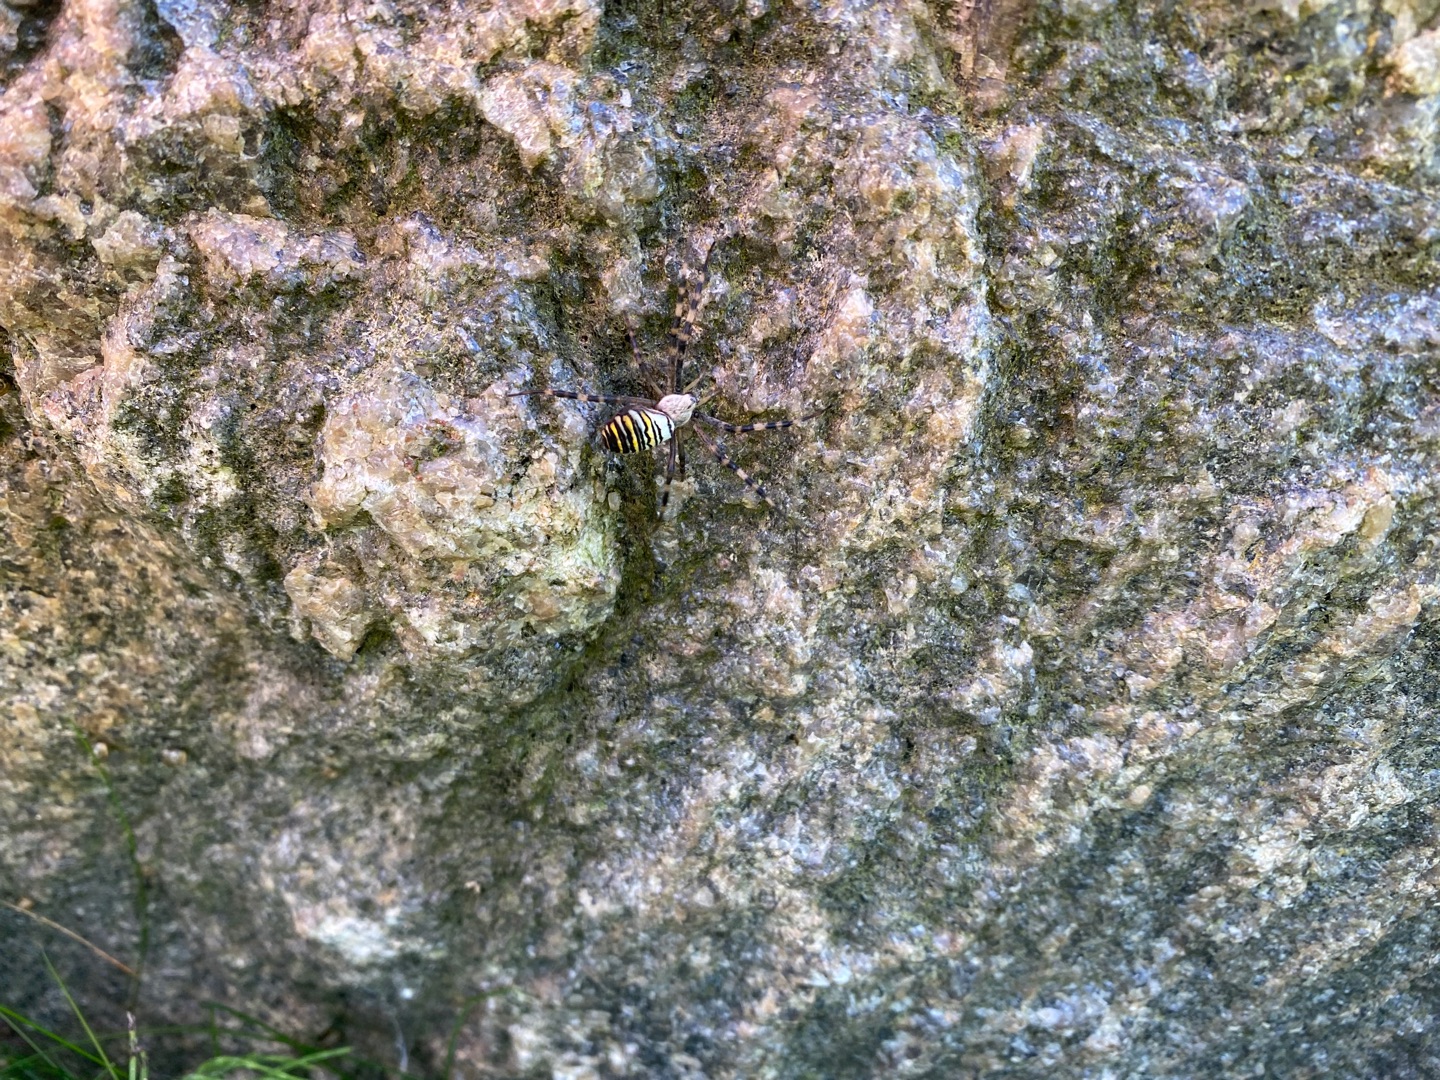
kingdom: Animalia
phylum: Arthropoda
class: Arachnida
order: Araneae
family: Araneidae
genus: Argiope
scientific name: Argiope bruennichi
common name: Hvepseedderkop
